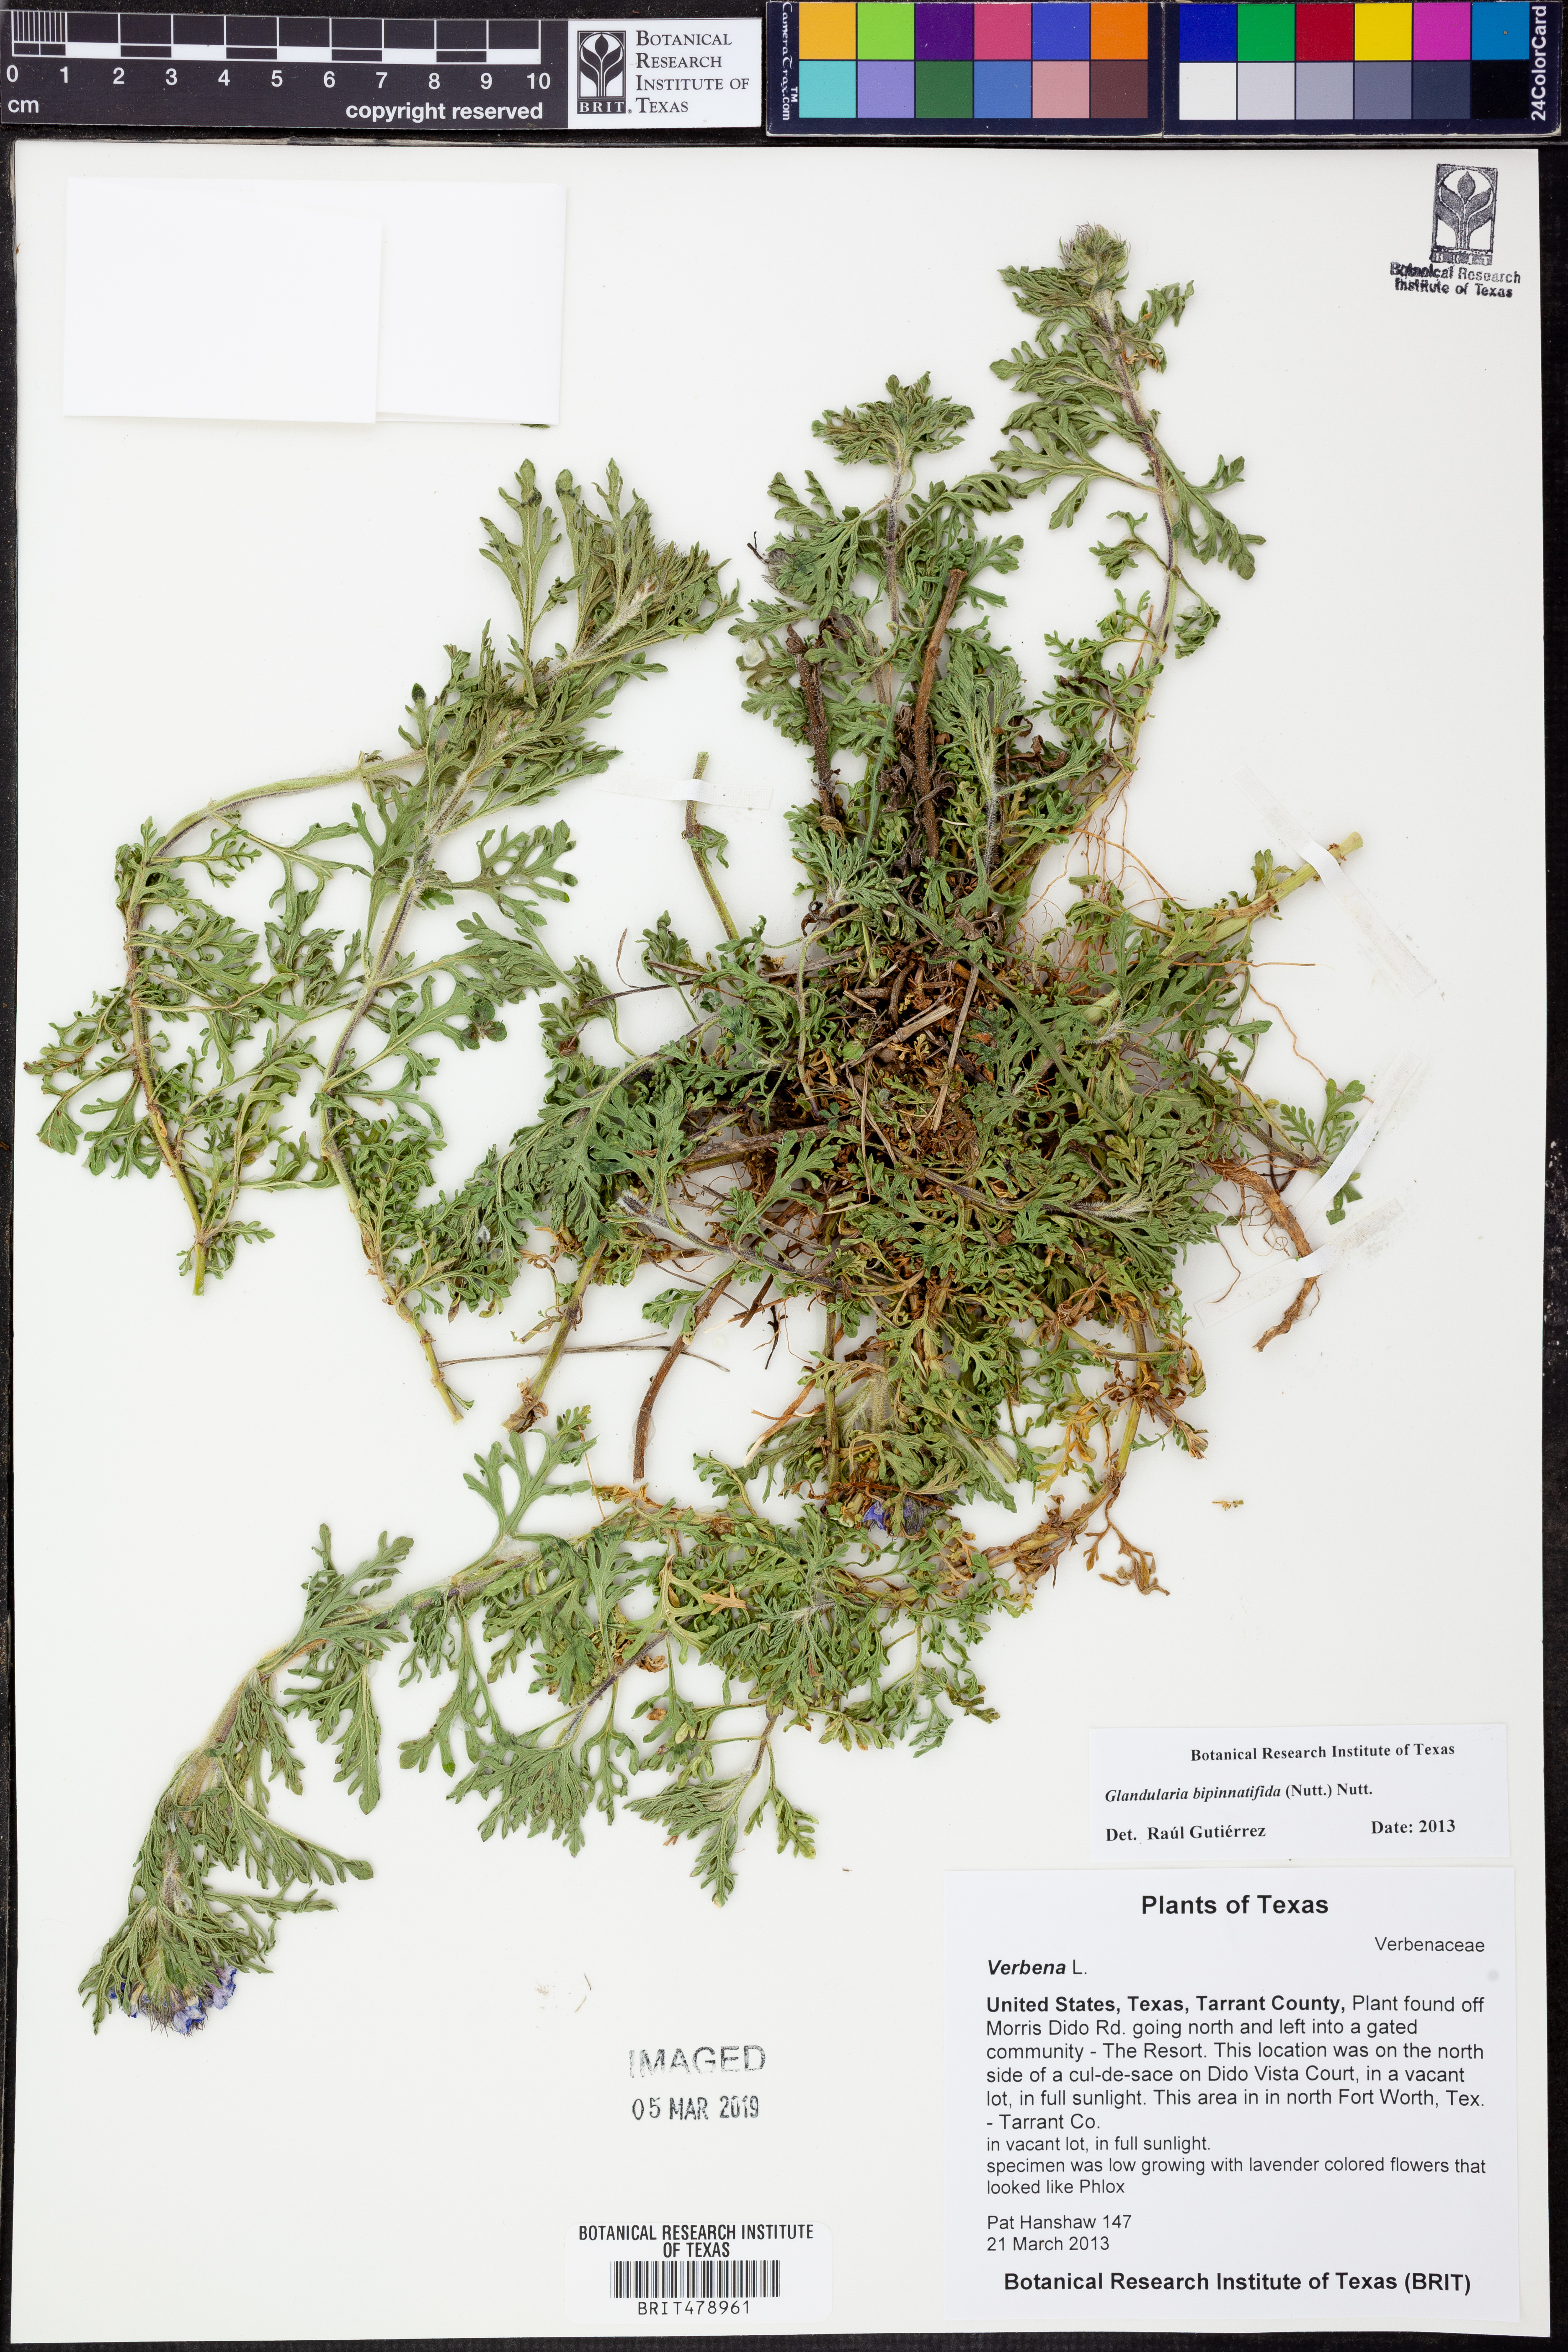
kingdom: Plantae
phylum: Tracheophyta
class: Magnoliopsida
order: Lamiales
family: Verbenaceae
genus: Verbena
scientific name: Verbena bipinnatifida
